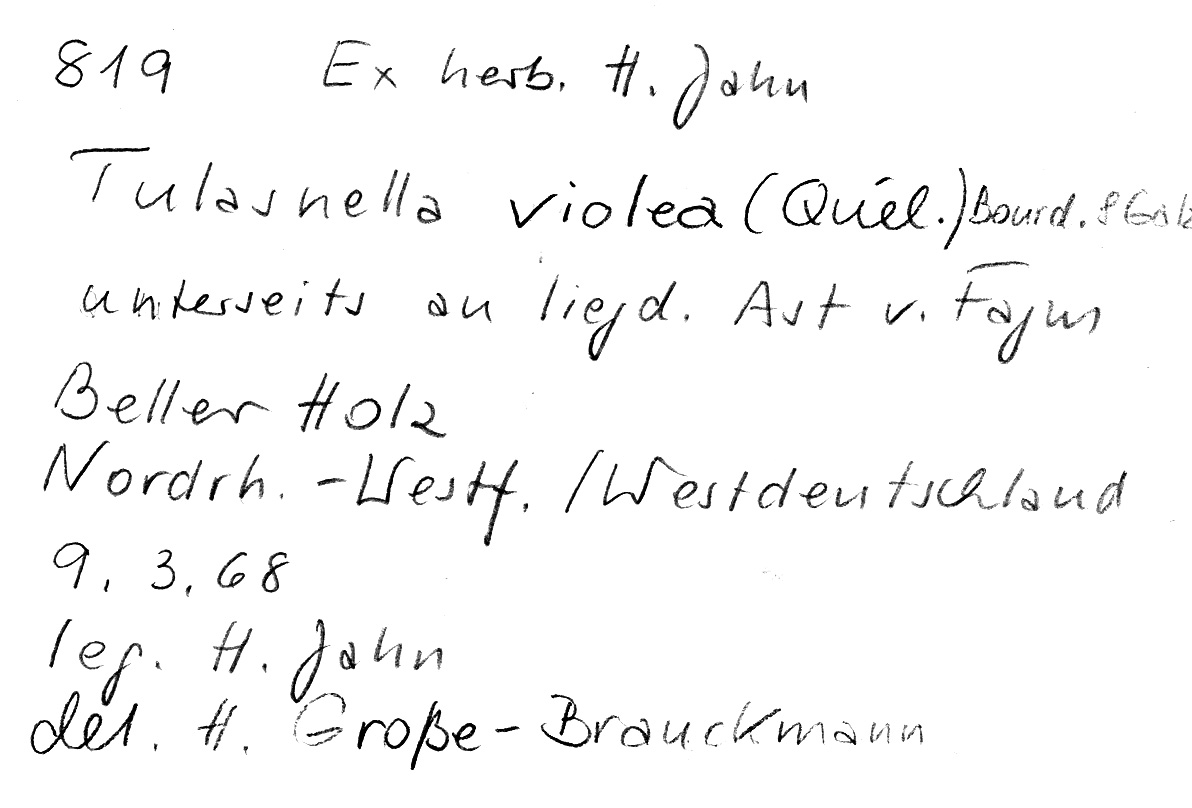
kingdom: Plantae
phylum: Tracheophyta
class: Magnoliopsida
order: Fagales
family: Fagaceae
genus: Fagus
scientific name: Fagus sylvatica
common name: Beech
